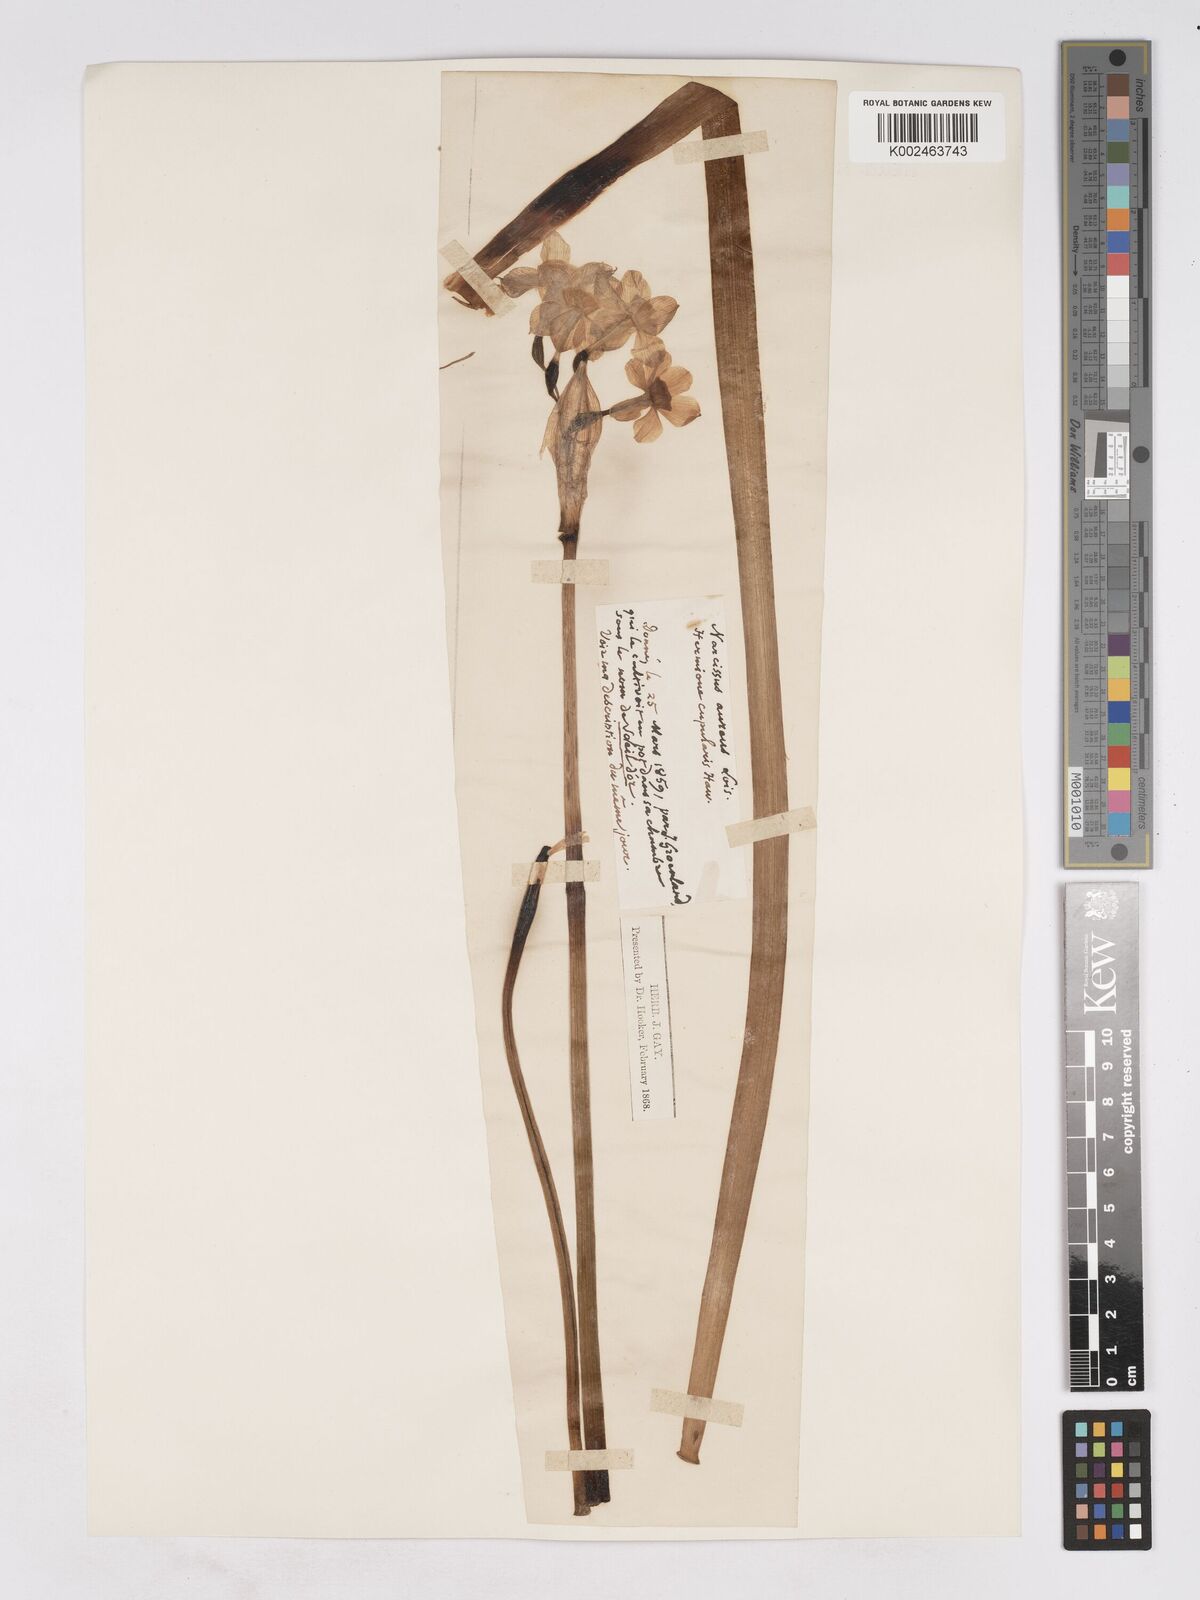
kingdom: Plantae
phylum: Tracheophyta
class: Liliopsida
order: Asparagales
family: Amaryllidaceae
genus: Narcissus
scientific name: Narcissus
